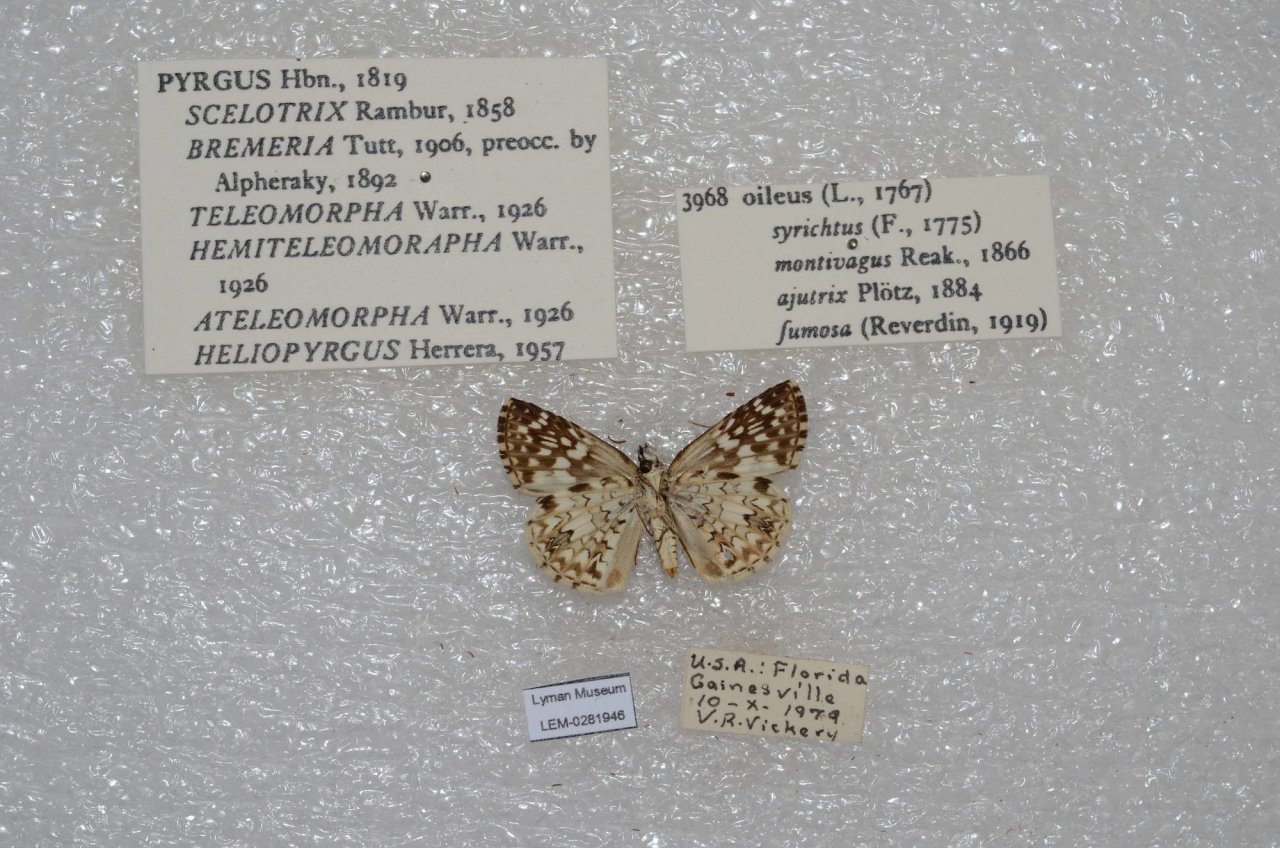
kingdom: Animalia
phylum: Arthropoda
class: Insecta
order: Lepidoptera
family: Hesperiidae
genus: Pyrgus
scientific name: Pyrgus oileus
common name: Tropical Checkered-Skipper
